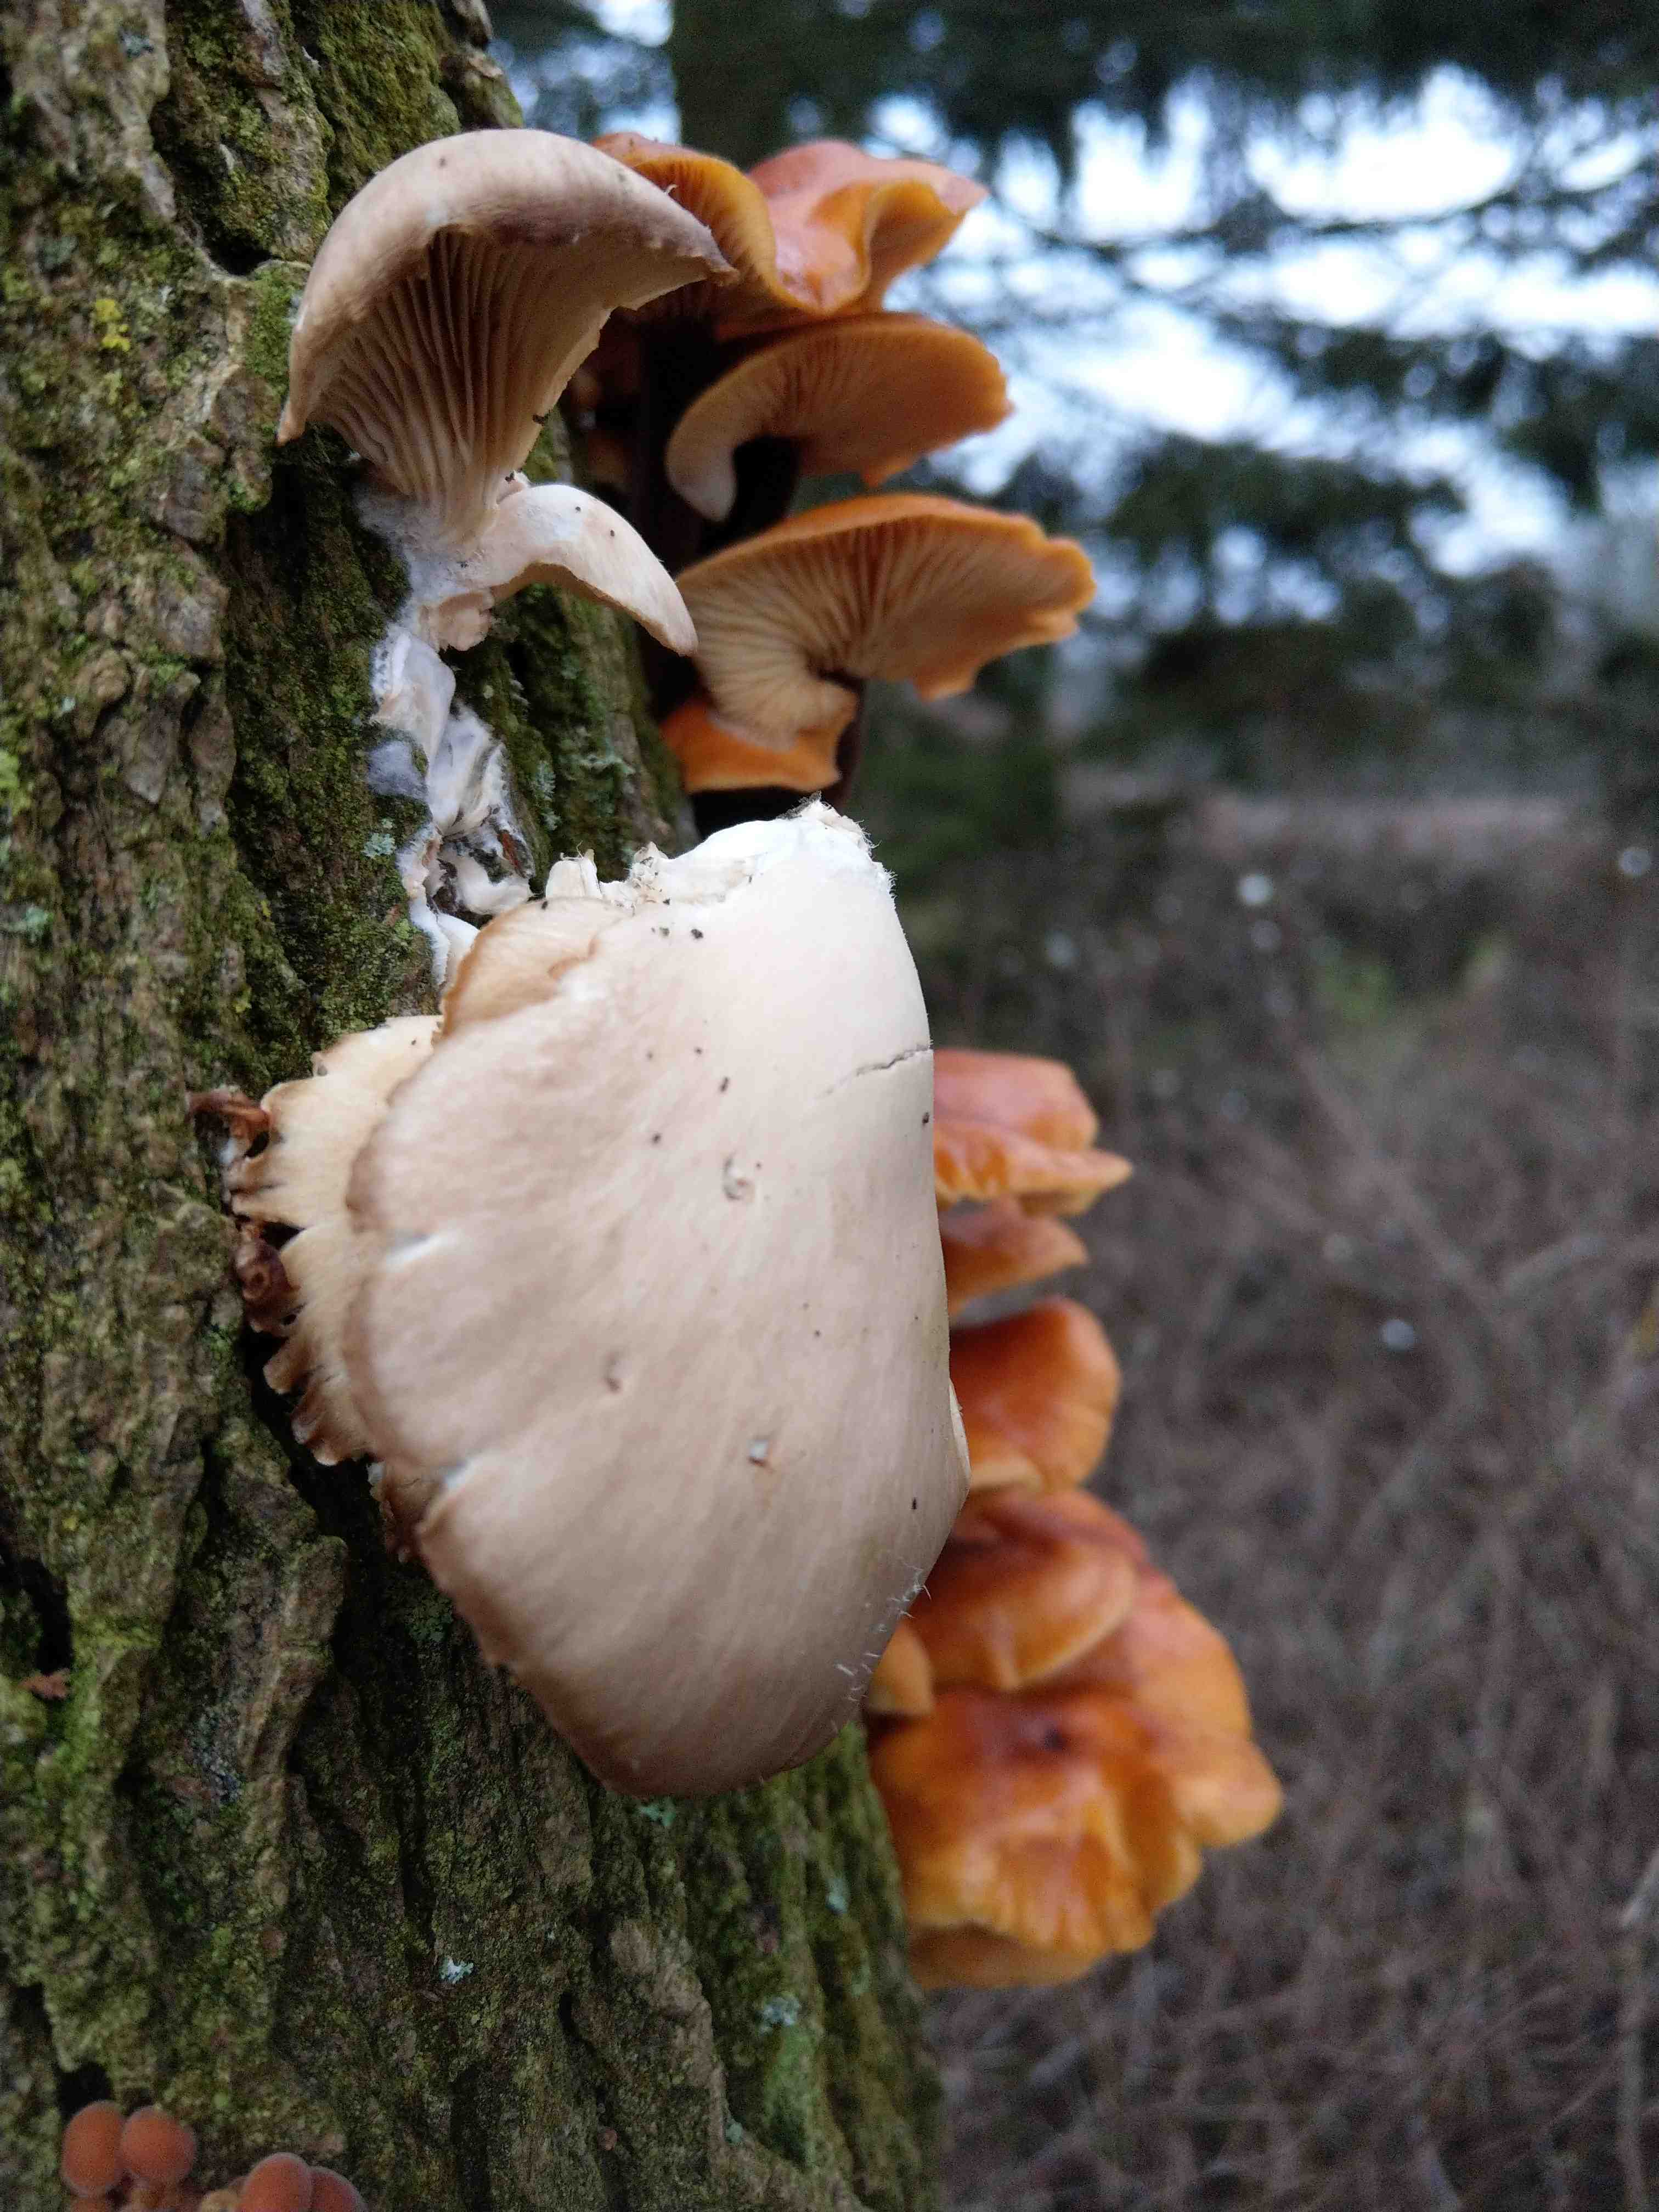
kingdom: Fungi
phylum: Basidiomycota
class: Agaricomycetes
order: Agaricales
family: Pleurotaceae
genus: Pleurotus
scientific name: Pleurotus ostreatus
